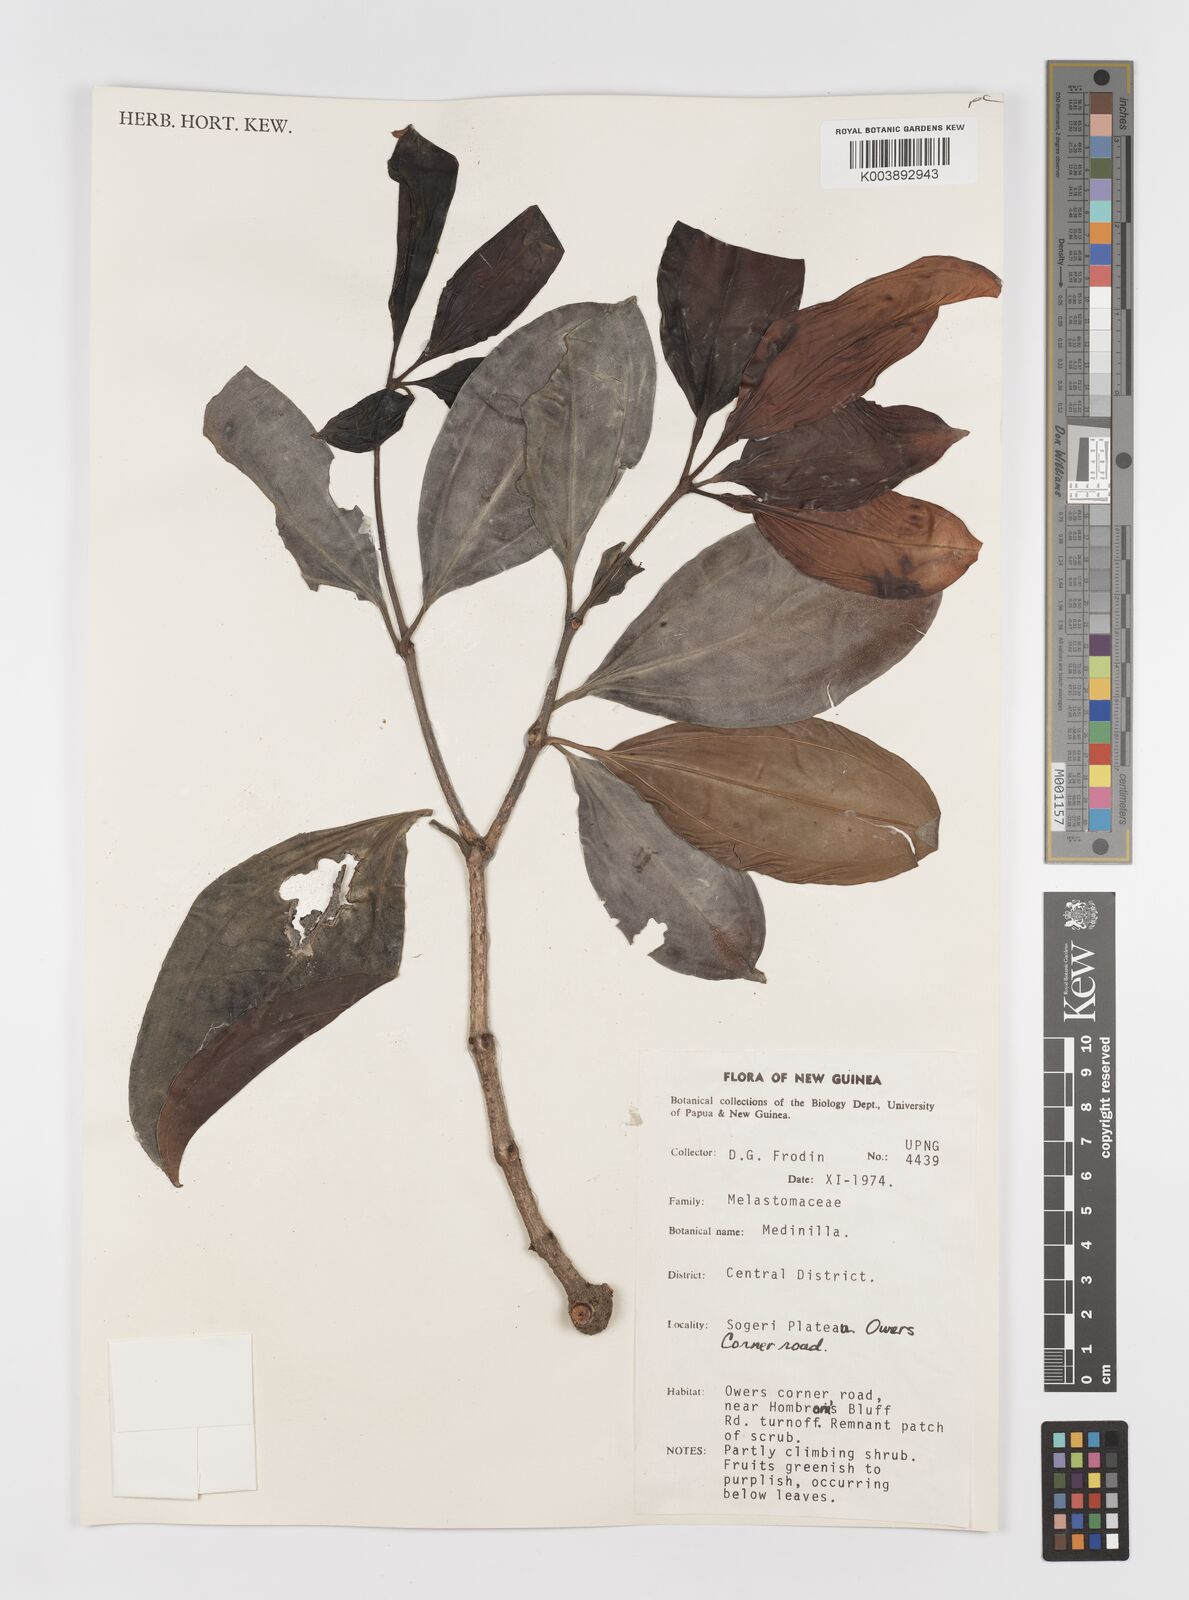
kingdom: Plantae
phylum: Tracheophyta
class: Magnoliopsida
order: Myrtales
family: Melastomataceae
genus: Medinilla
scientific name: Medinilla beddomei
